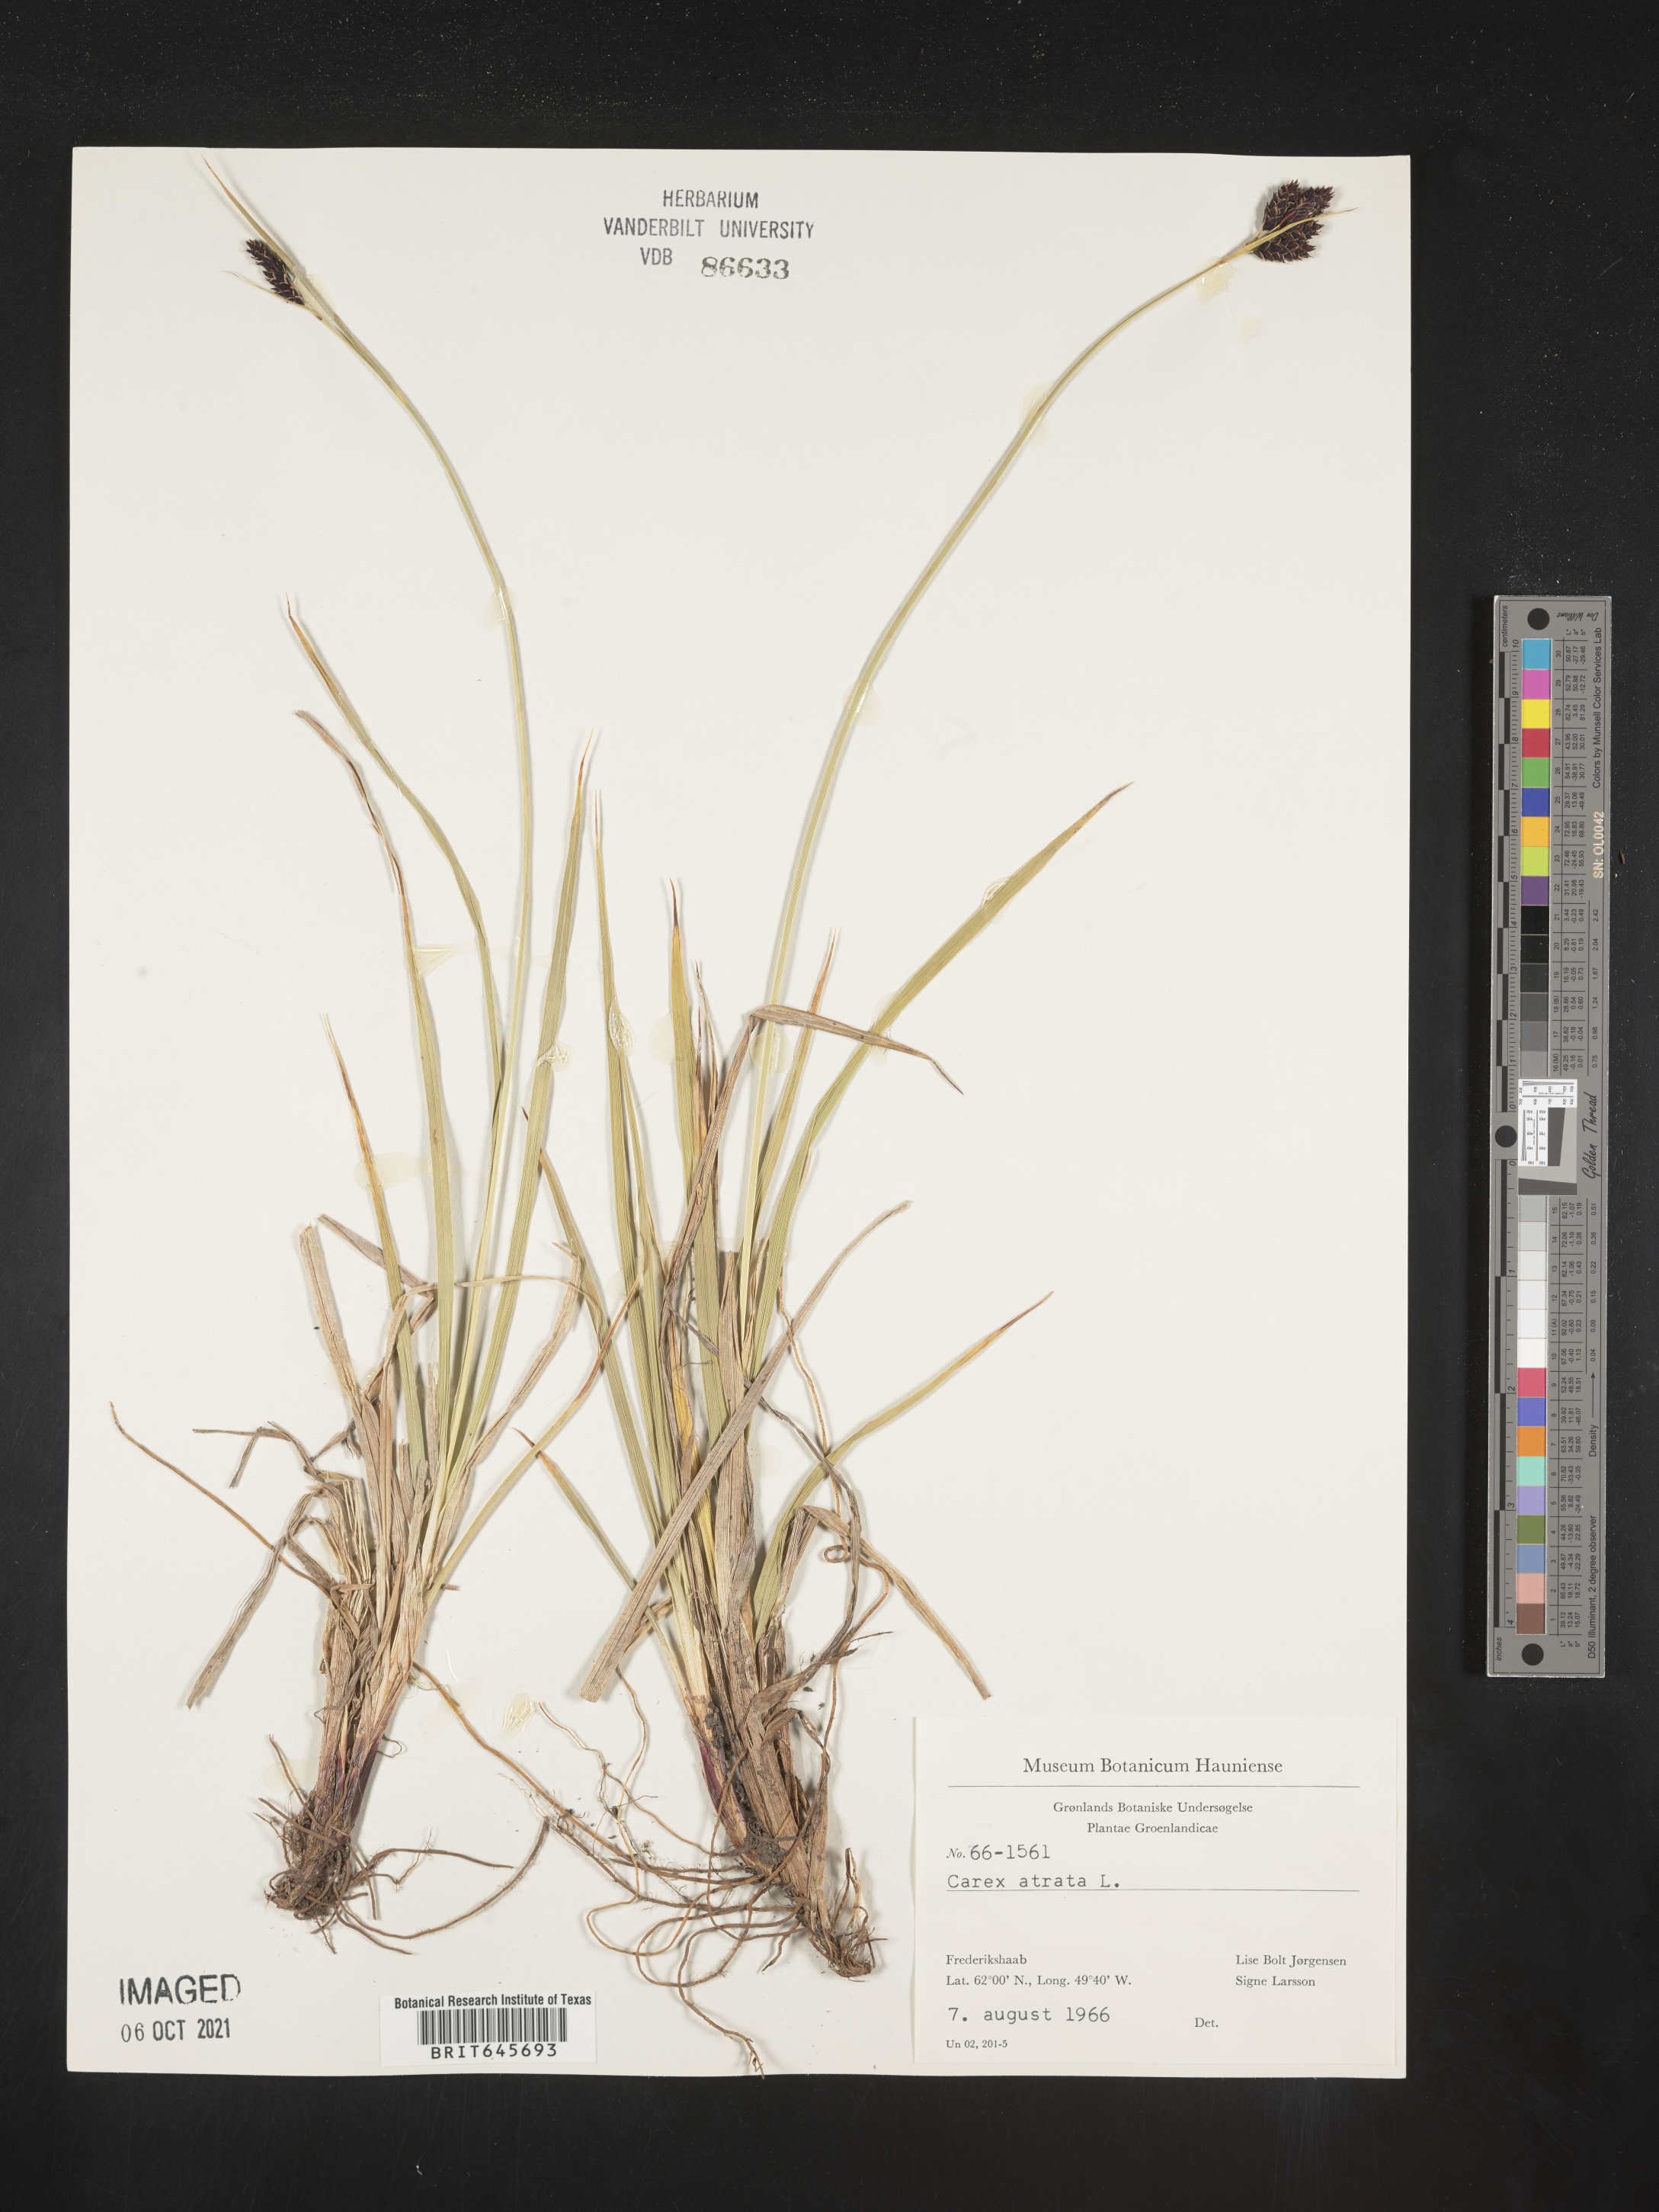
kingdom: Plantae
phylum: Tracheophyta
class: Liliopsida
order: Poales
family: Cyperaceae
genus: Carex
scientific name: Carex atrata
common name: Black alpine sedge
